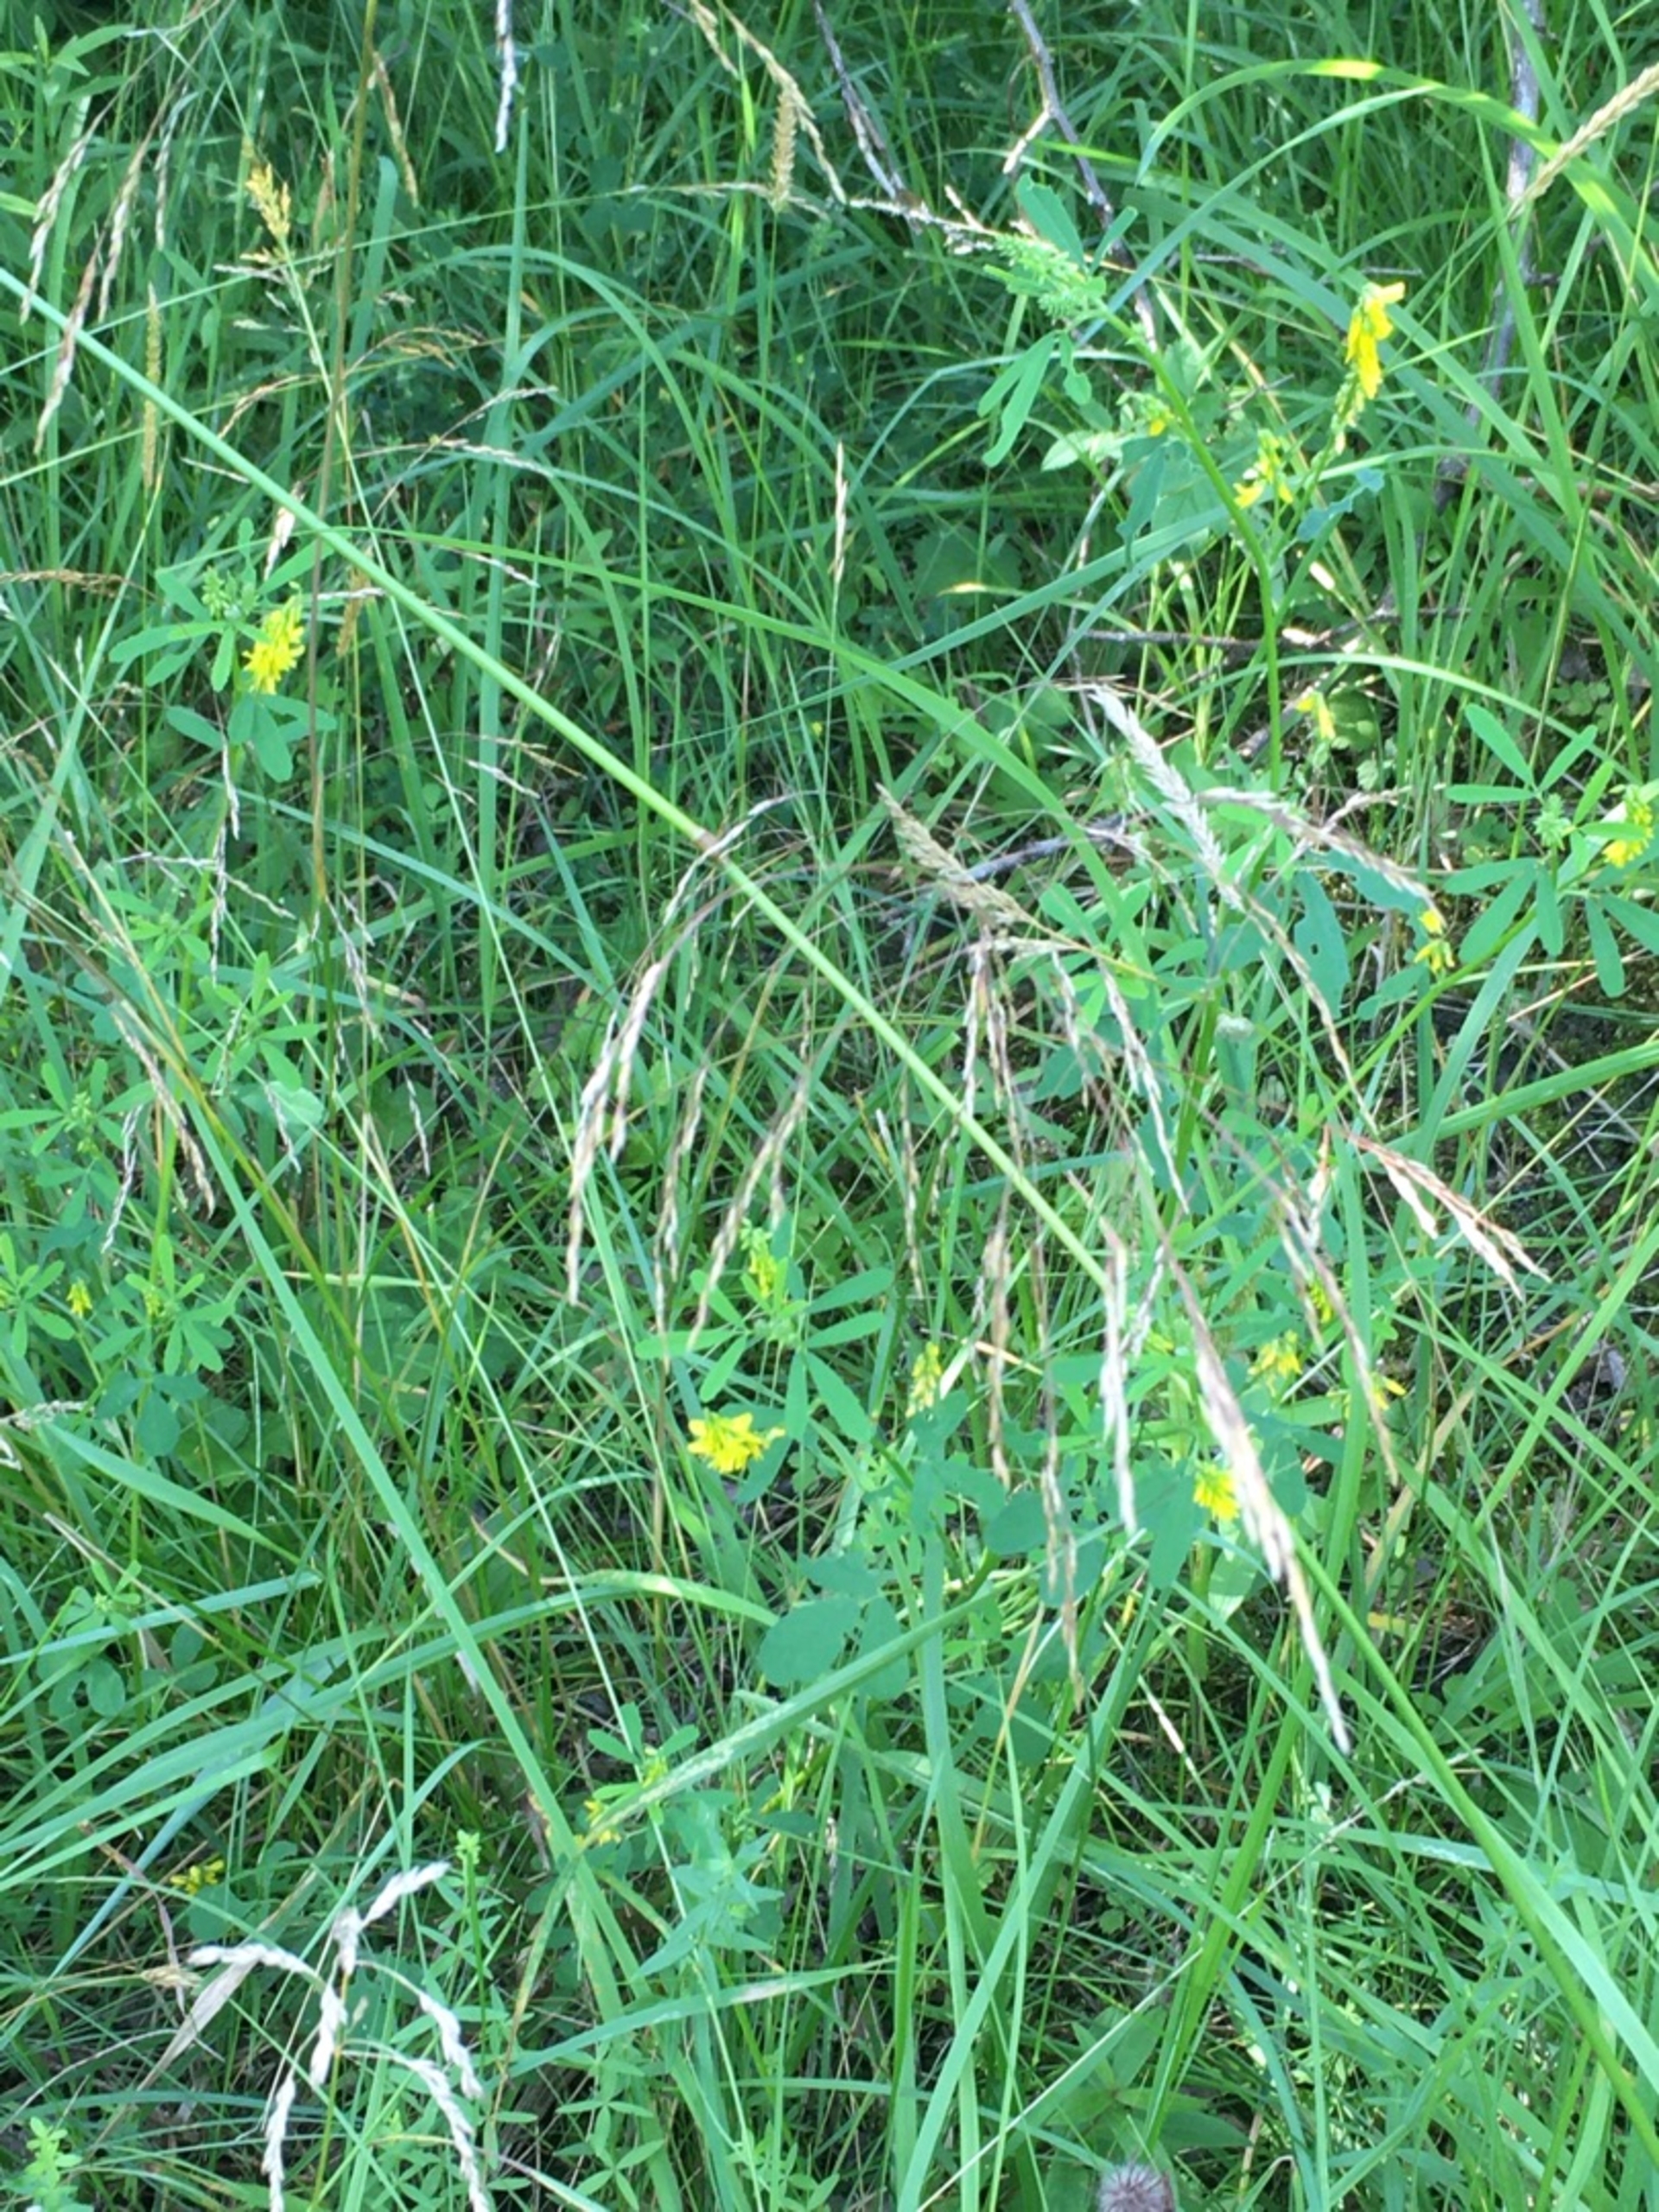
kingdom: Plantae
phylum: Tracheophyta
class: Magnoliopsida
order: Fabales
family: Fabaceae
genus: Melilotus
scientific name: Melilotus altissimus
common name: Høj stenkløver
